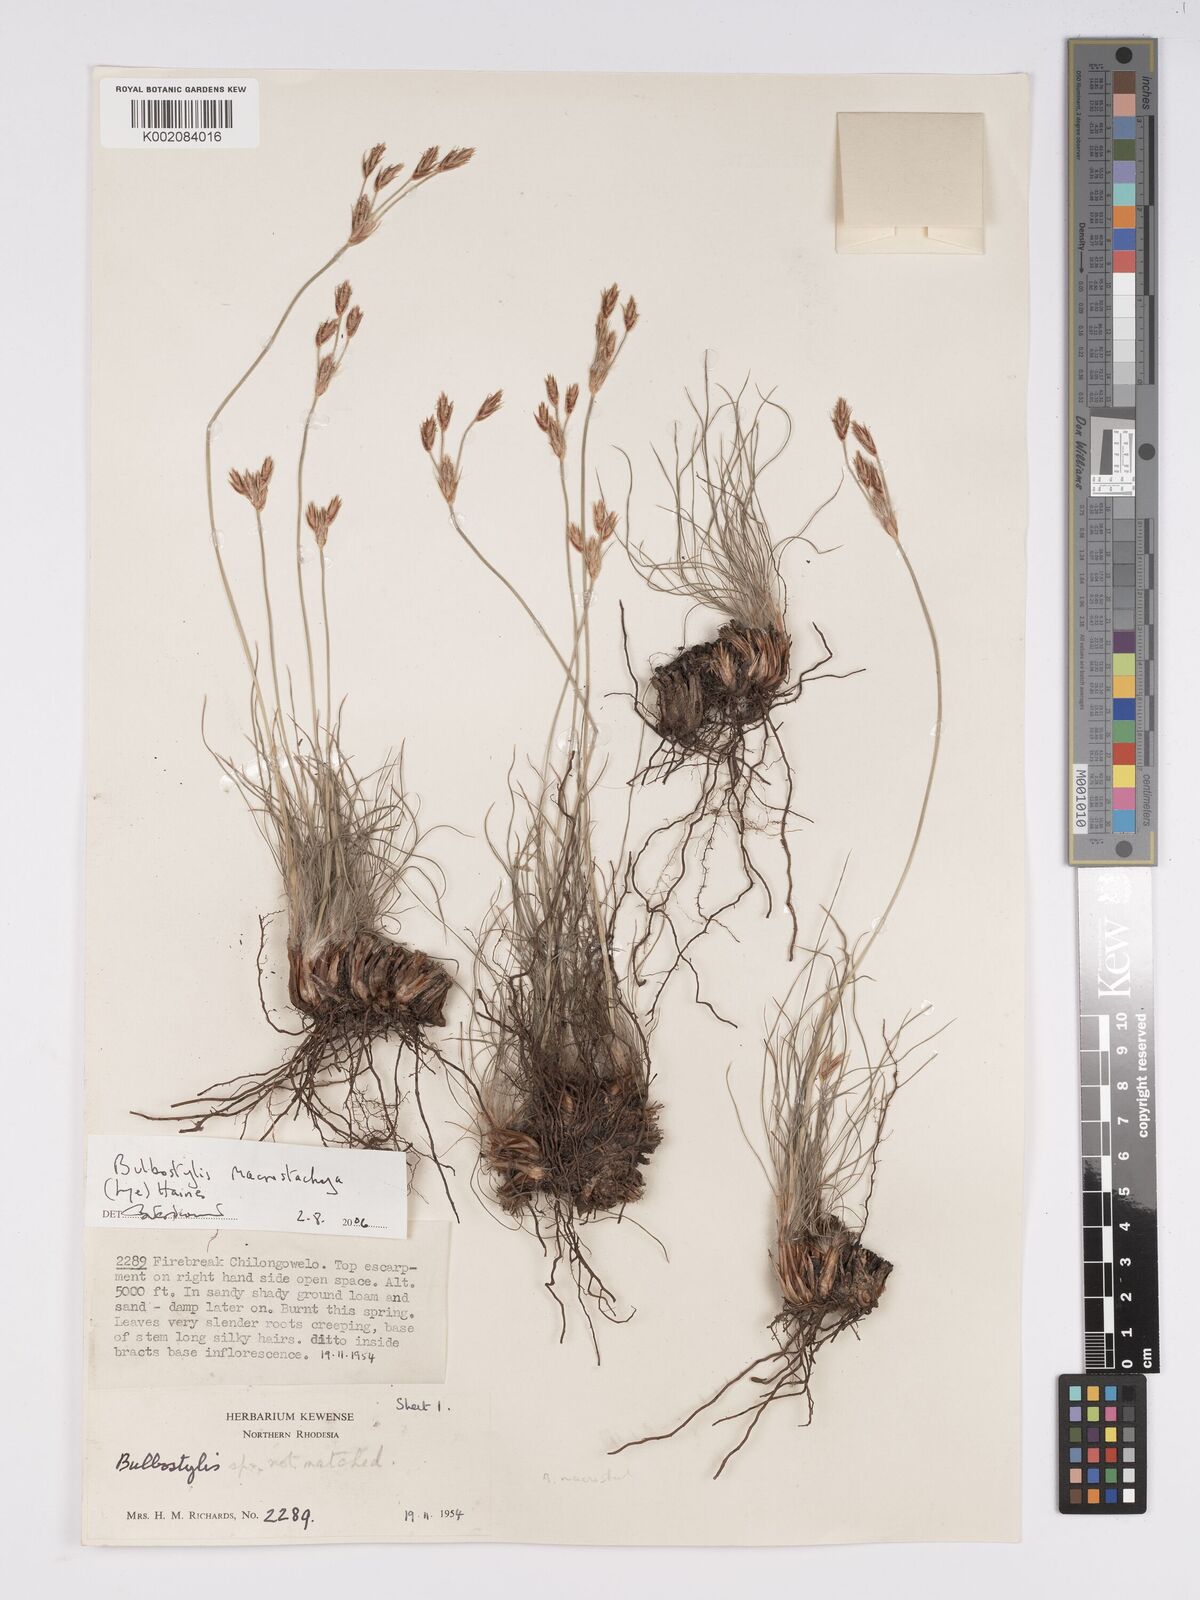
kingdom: Plantae
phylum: Tracheophyta
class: Liliopsida
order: Poales
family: Cyperaceae
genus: Bulbostylis
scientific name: Bulbostylis macrostachya
